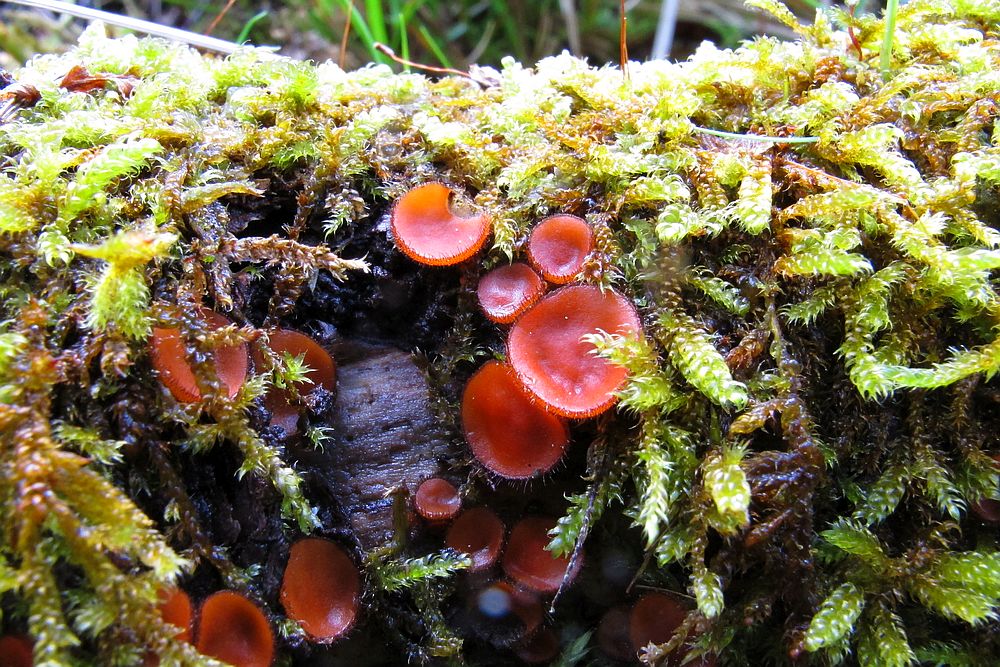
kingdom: Fungi
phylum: Ascomycota
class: Pezizomycetes
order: Pezizales
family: Pyronemataceae
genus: Scutellinia
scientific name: Scutellinia scutellata
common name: frynset skjoldbæger
